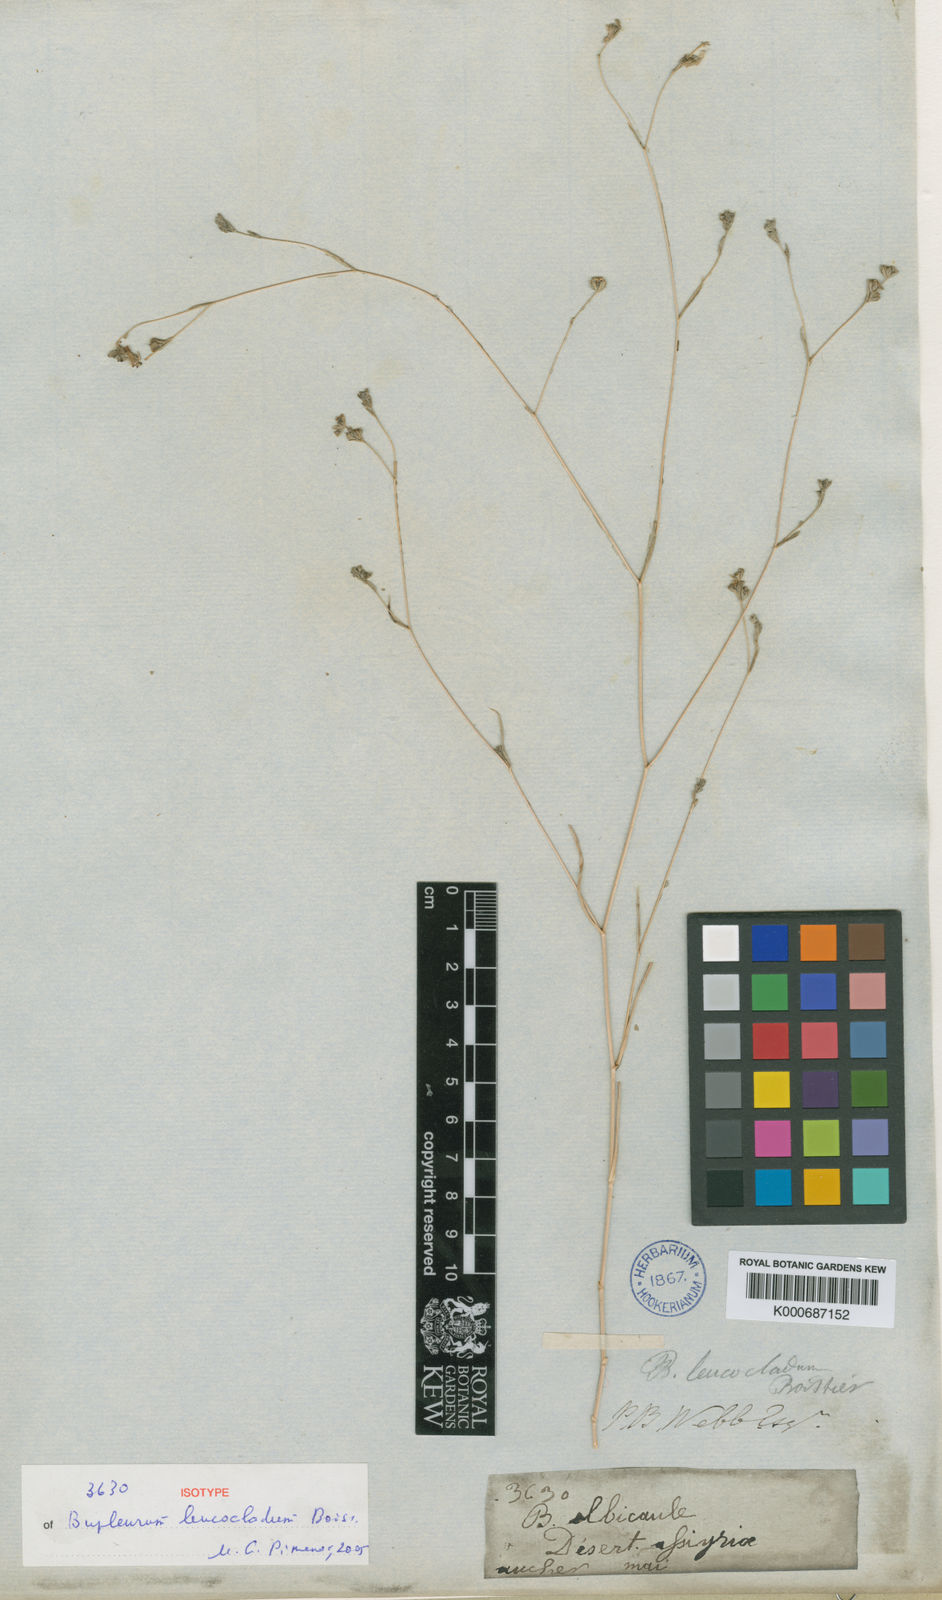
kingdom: Plantae
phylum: Tracheophyta
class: Magnoliopsida
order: Apiales
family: Apiaceae
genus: Bupleurum
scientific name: Bupleurum leucocladum
